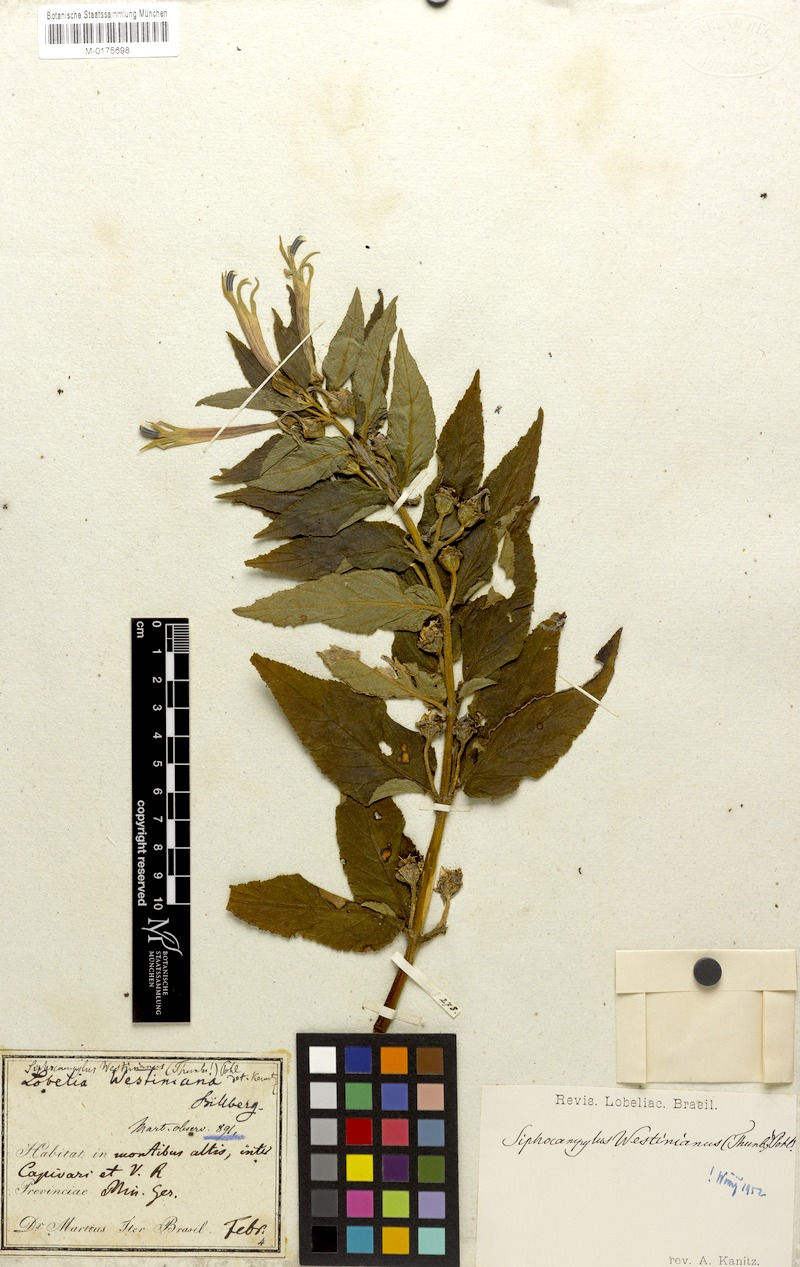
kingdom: Plantae
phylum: Tracheophyta
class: Magnoliopsida
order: Asterales
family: Campanulaceae
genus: Siphocampylus
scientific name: Siphocampylus westinianus
